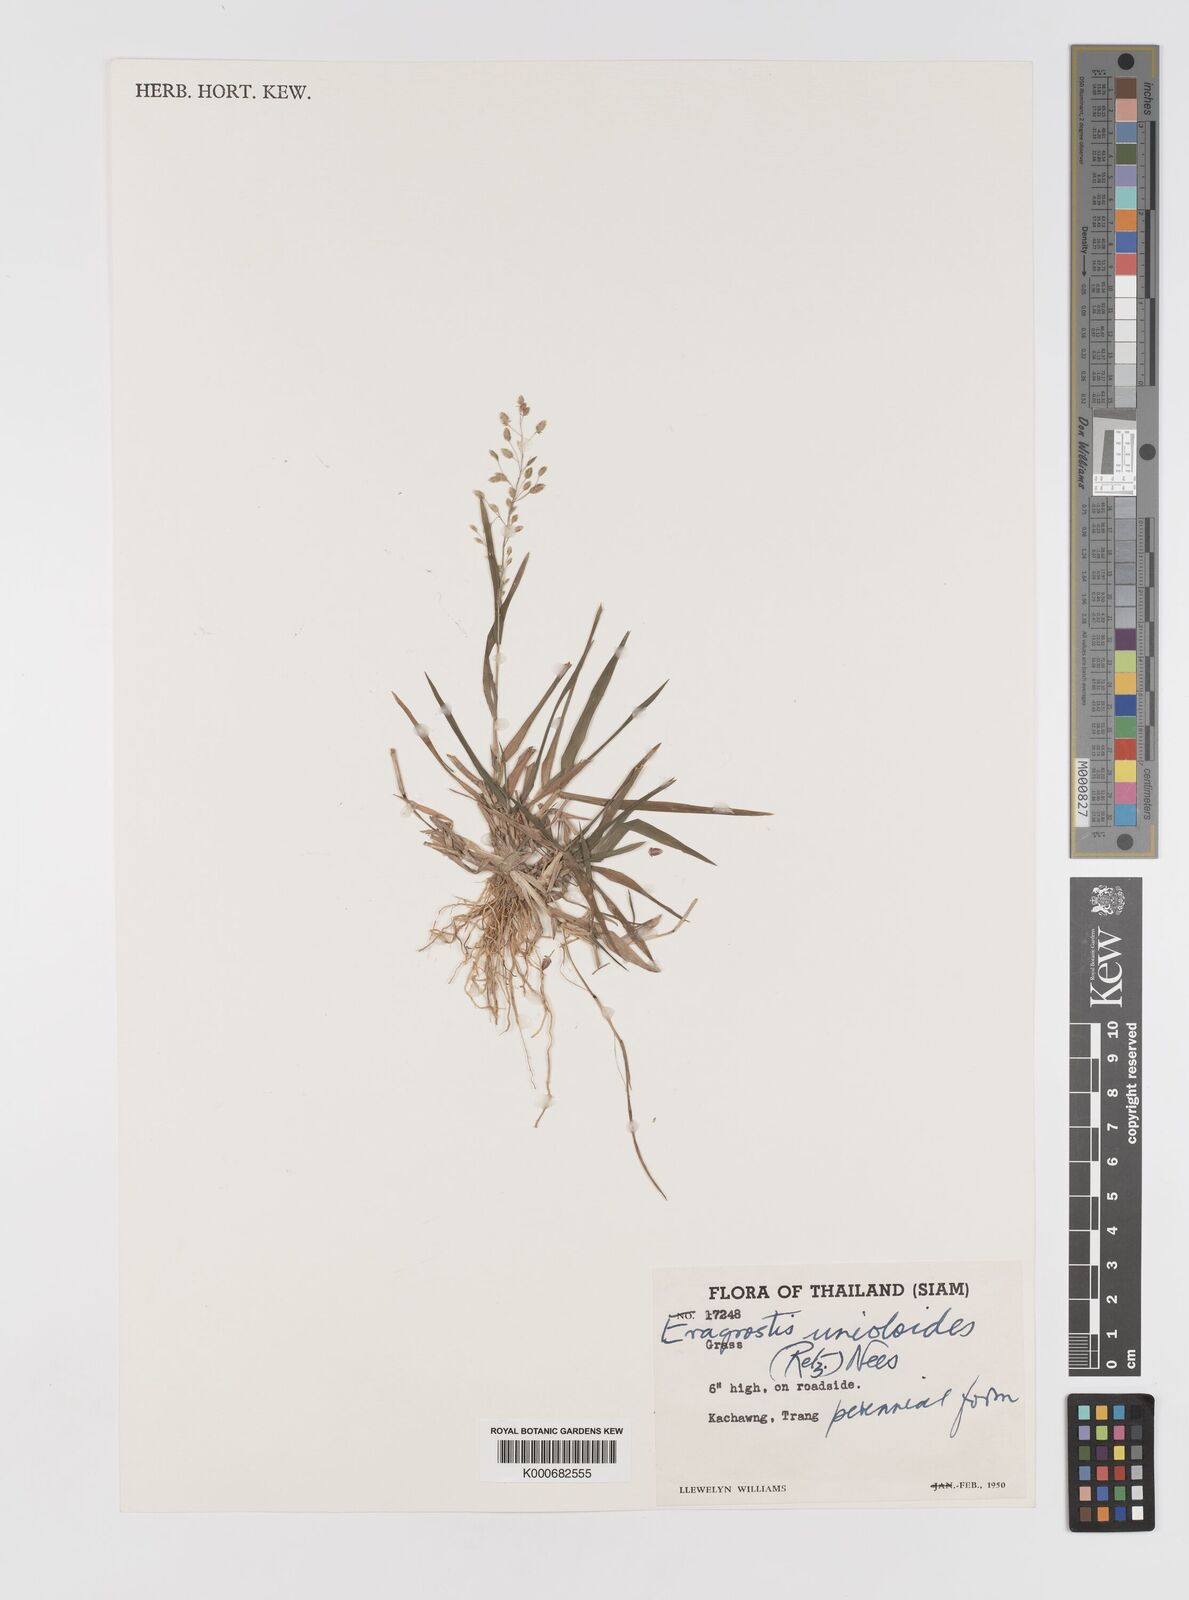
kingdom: Plantae
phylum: Tracheophyta
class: Liliopsida
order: Poales
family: Poaceae
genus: Eragrostis
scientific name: Eragrostis unioloides
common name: Chinese lovegrass
